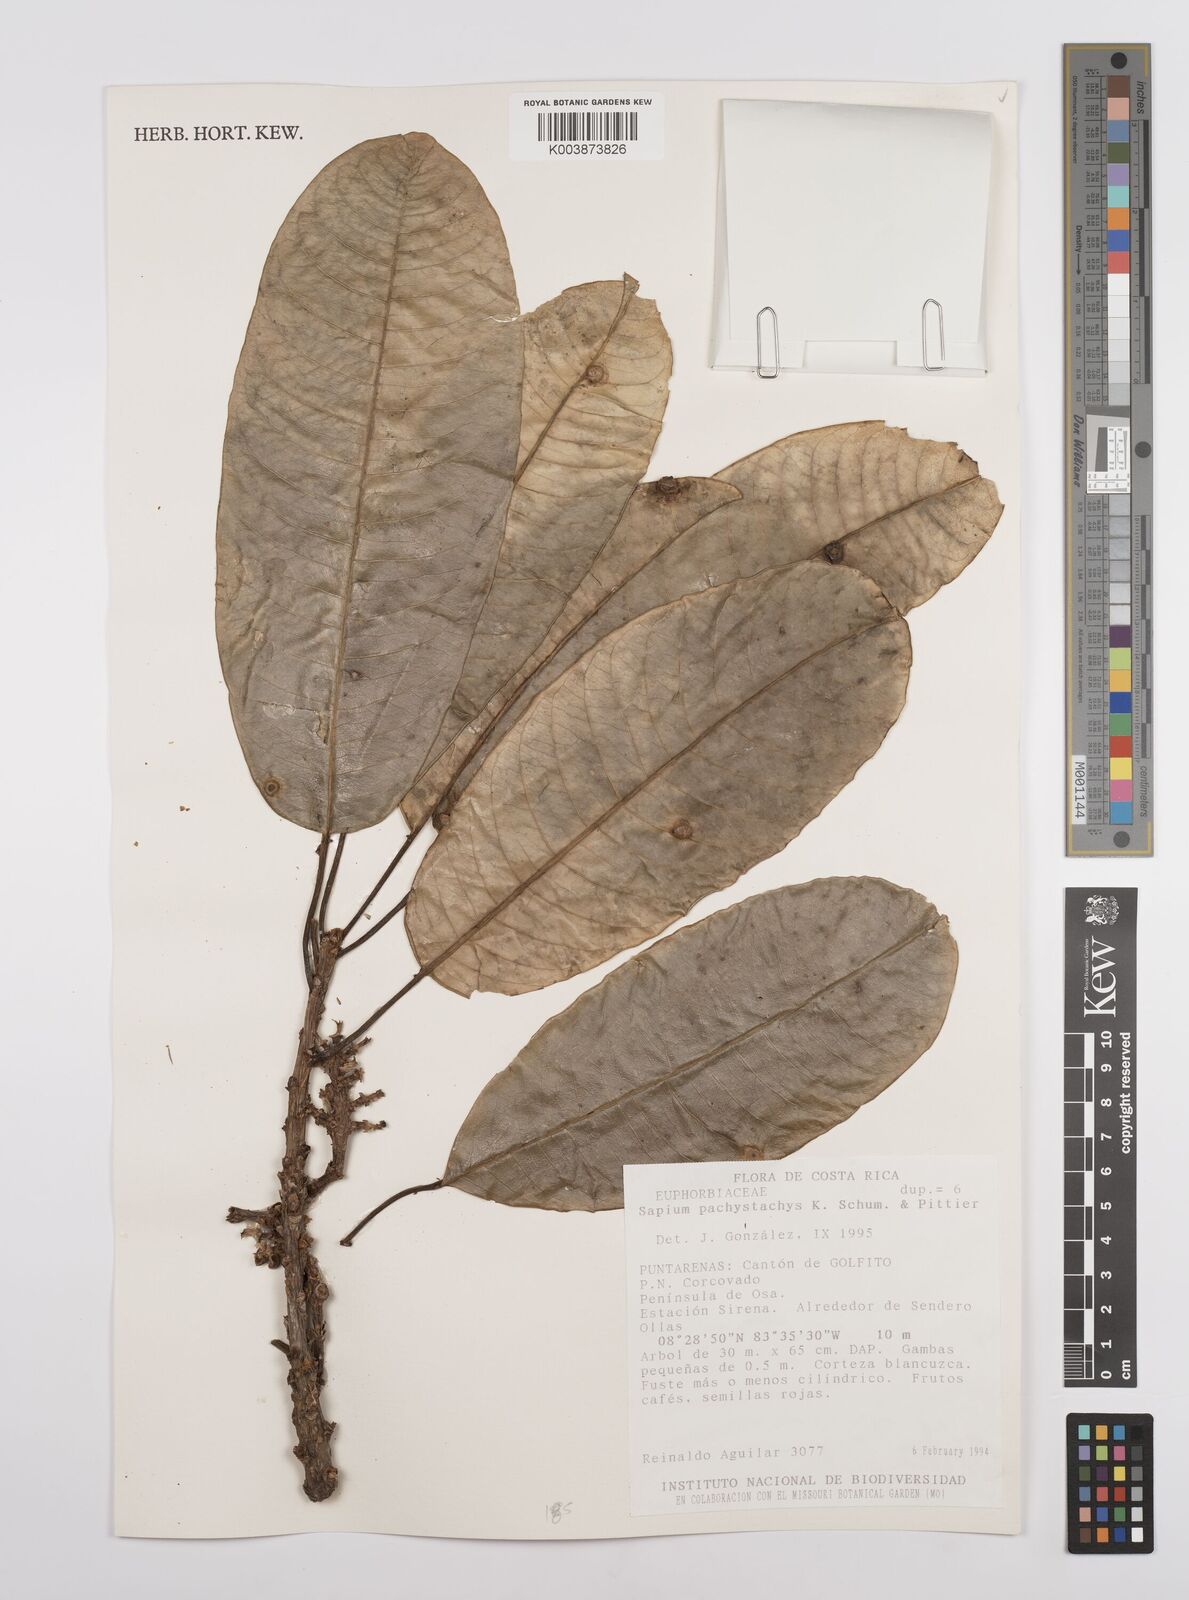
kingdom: Plantae
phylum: Tracheophyta
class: Magnoliopsida
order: Malpighiales
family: Euphorbiaceae
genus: Sapium
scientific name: Sapium pachystachys
